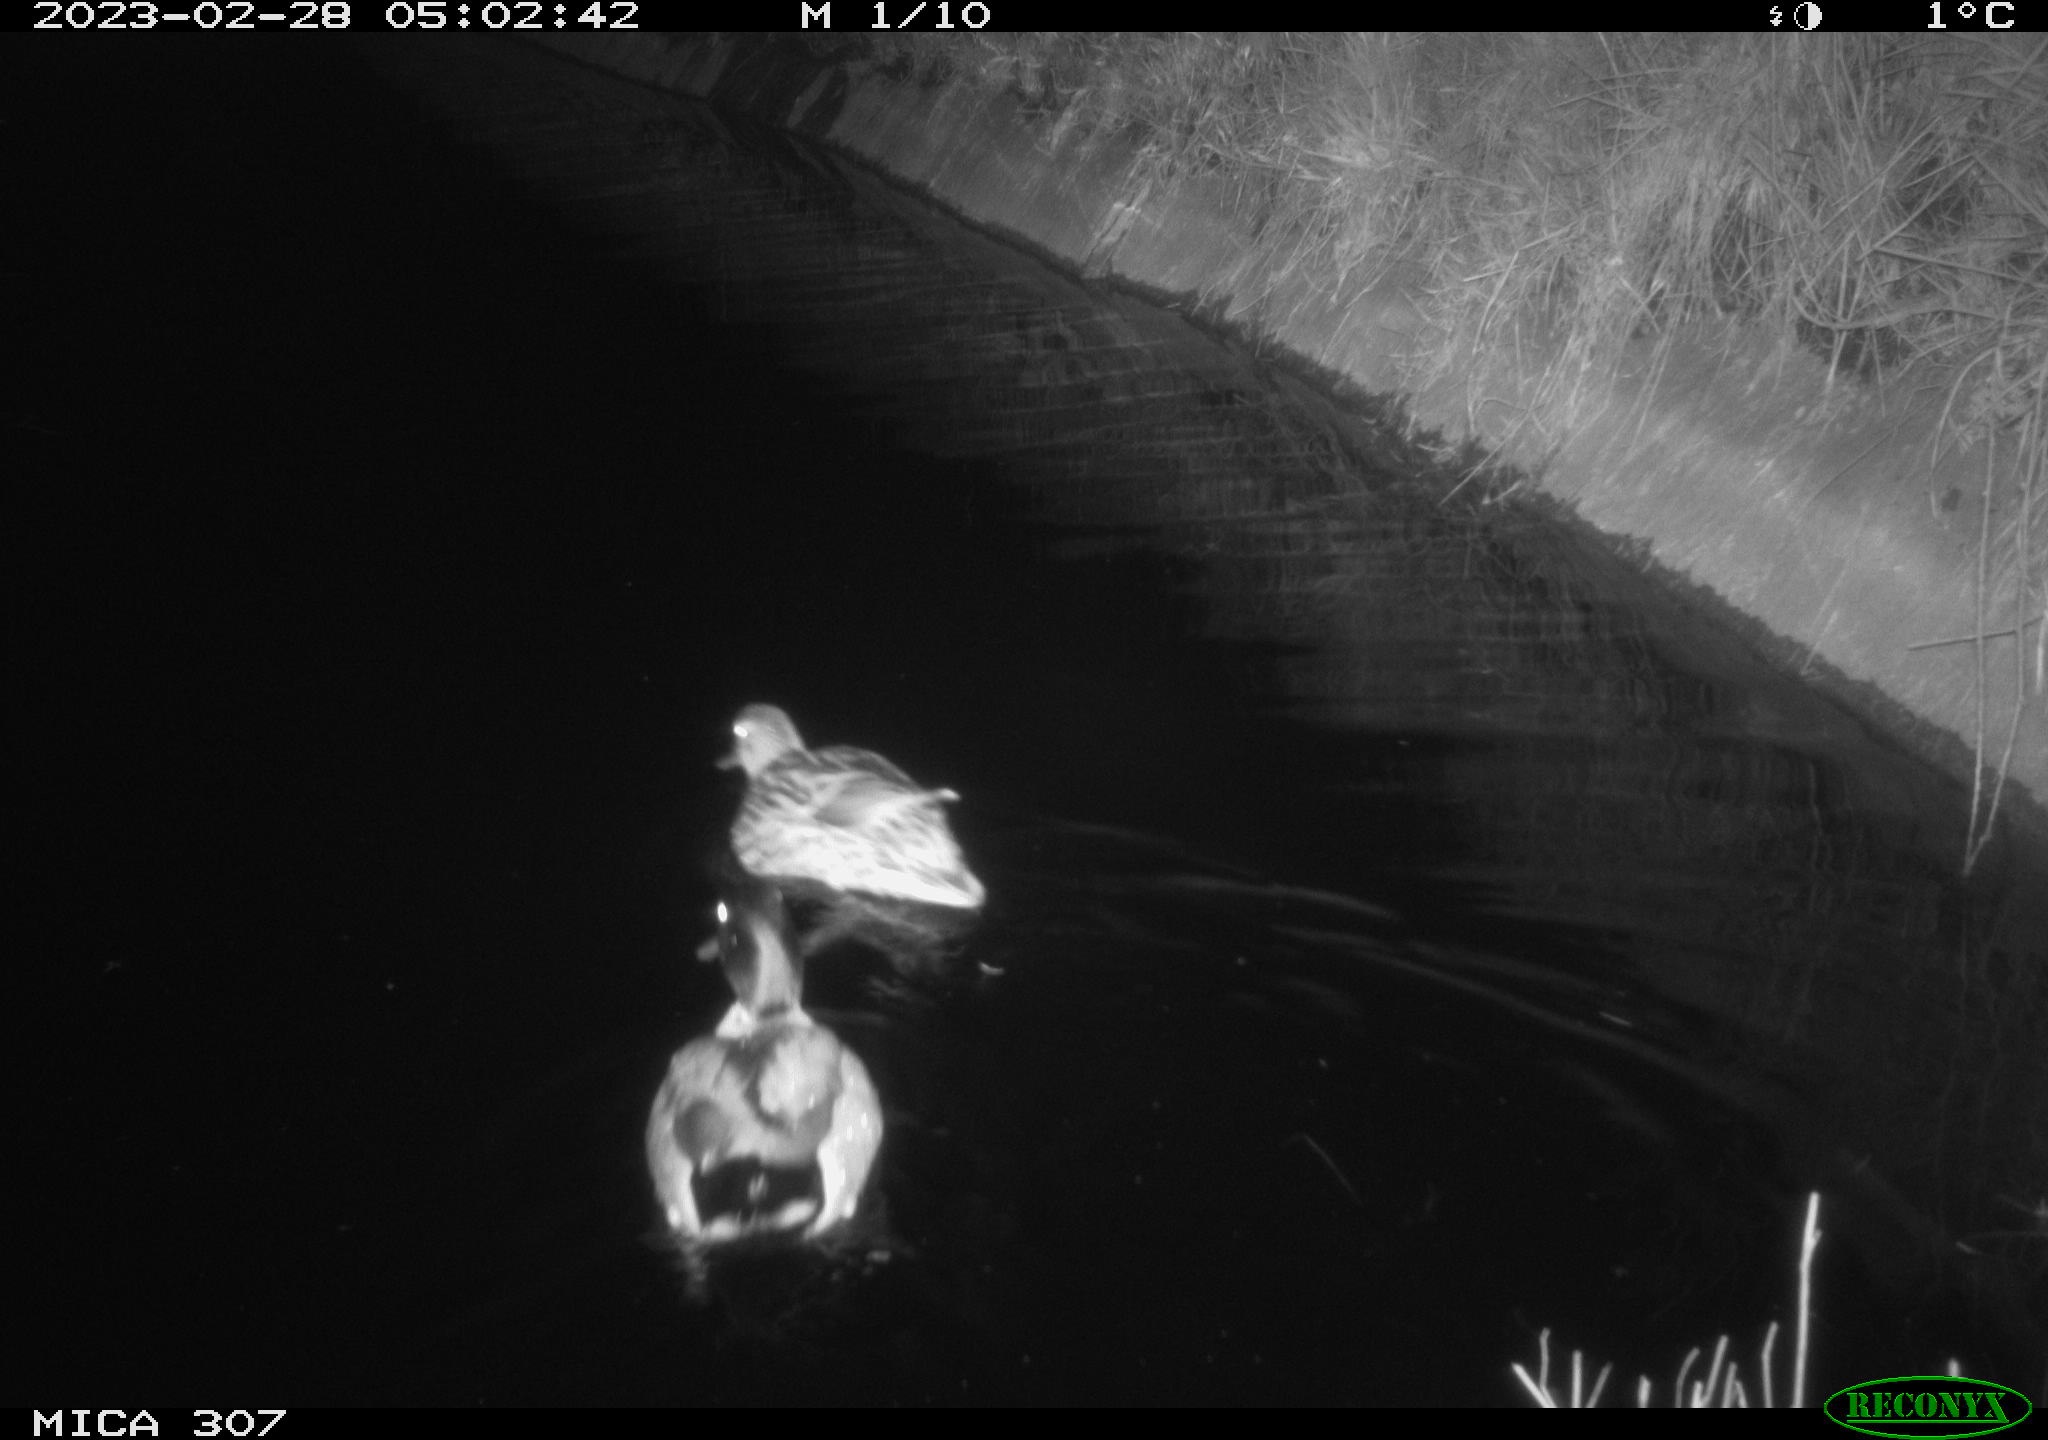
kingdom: Animalia
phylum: Chordata
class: Aves
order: Anseriformes
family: Anatidae
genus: Anas
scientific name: Anas
